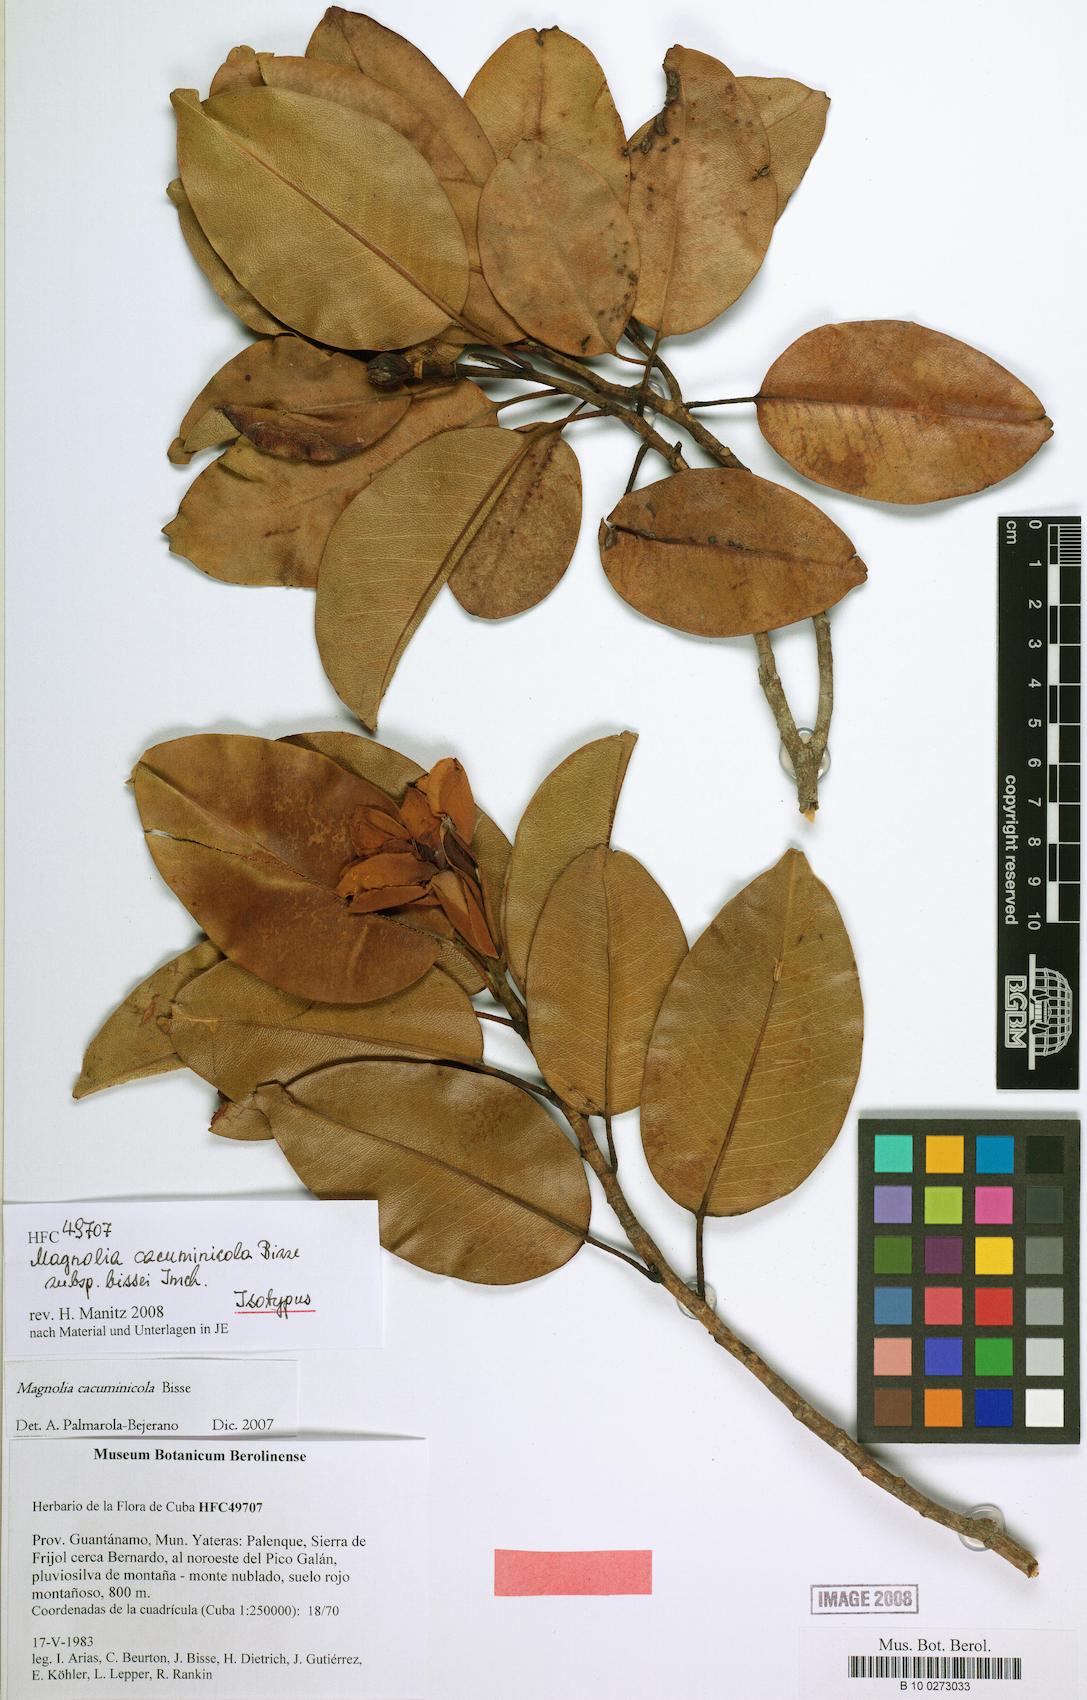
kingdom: Plantae
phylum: Tracheophyta
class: Magnoliopsida
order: Magnoliales
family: Magnoliaceae
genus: Magnolia
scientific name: Magnolia cubensis
